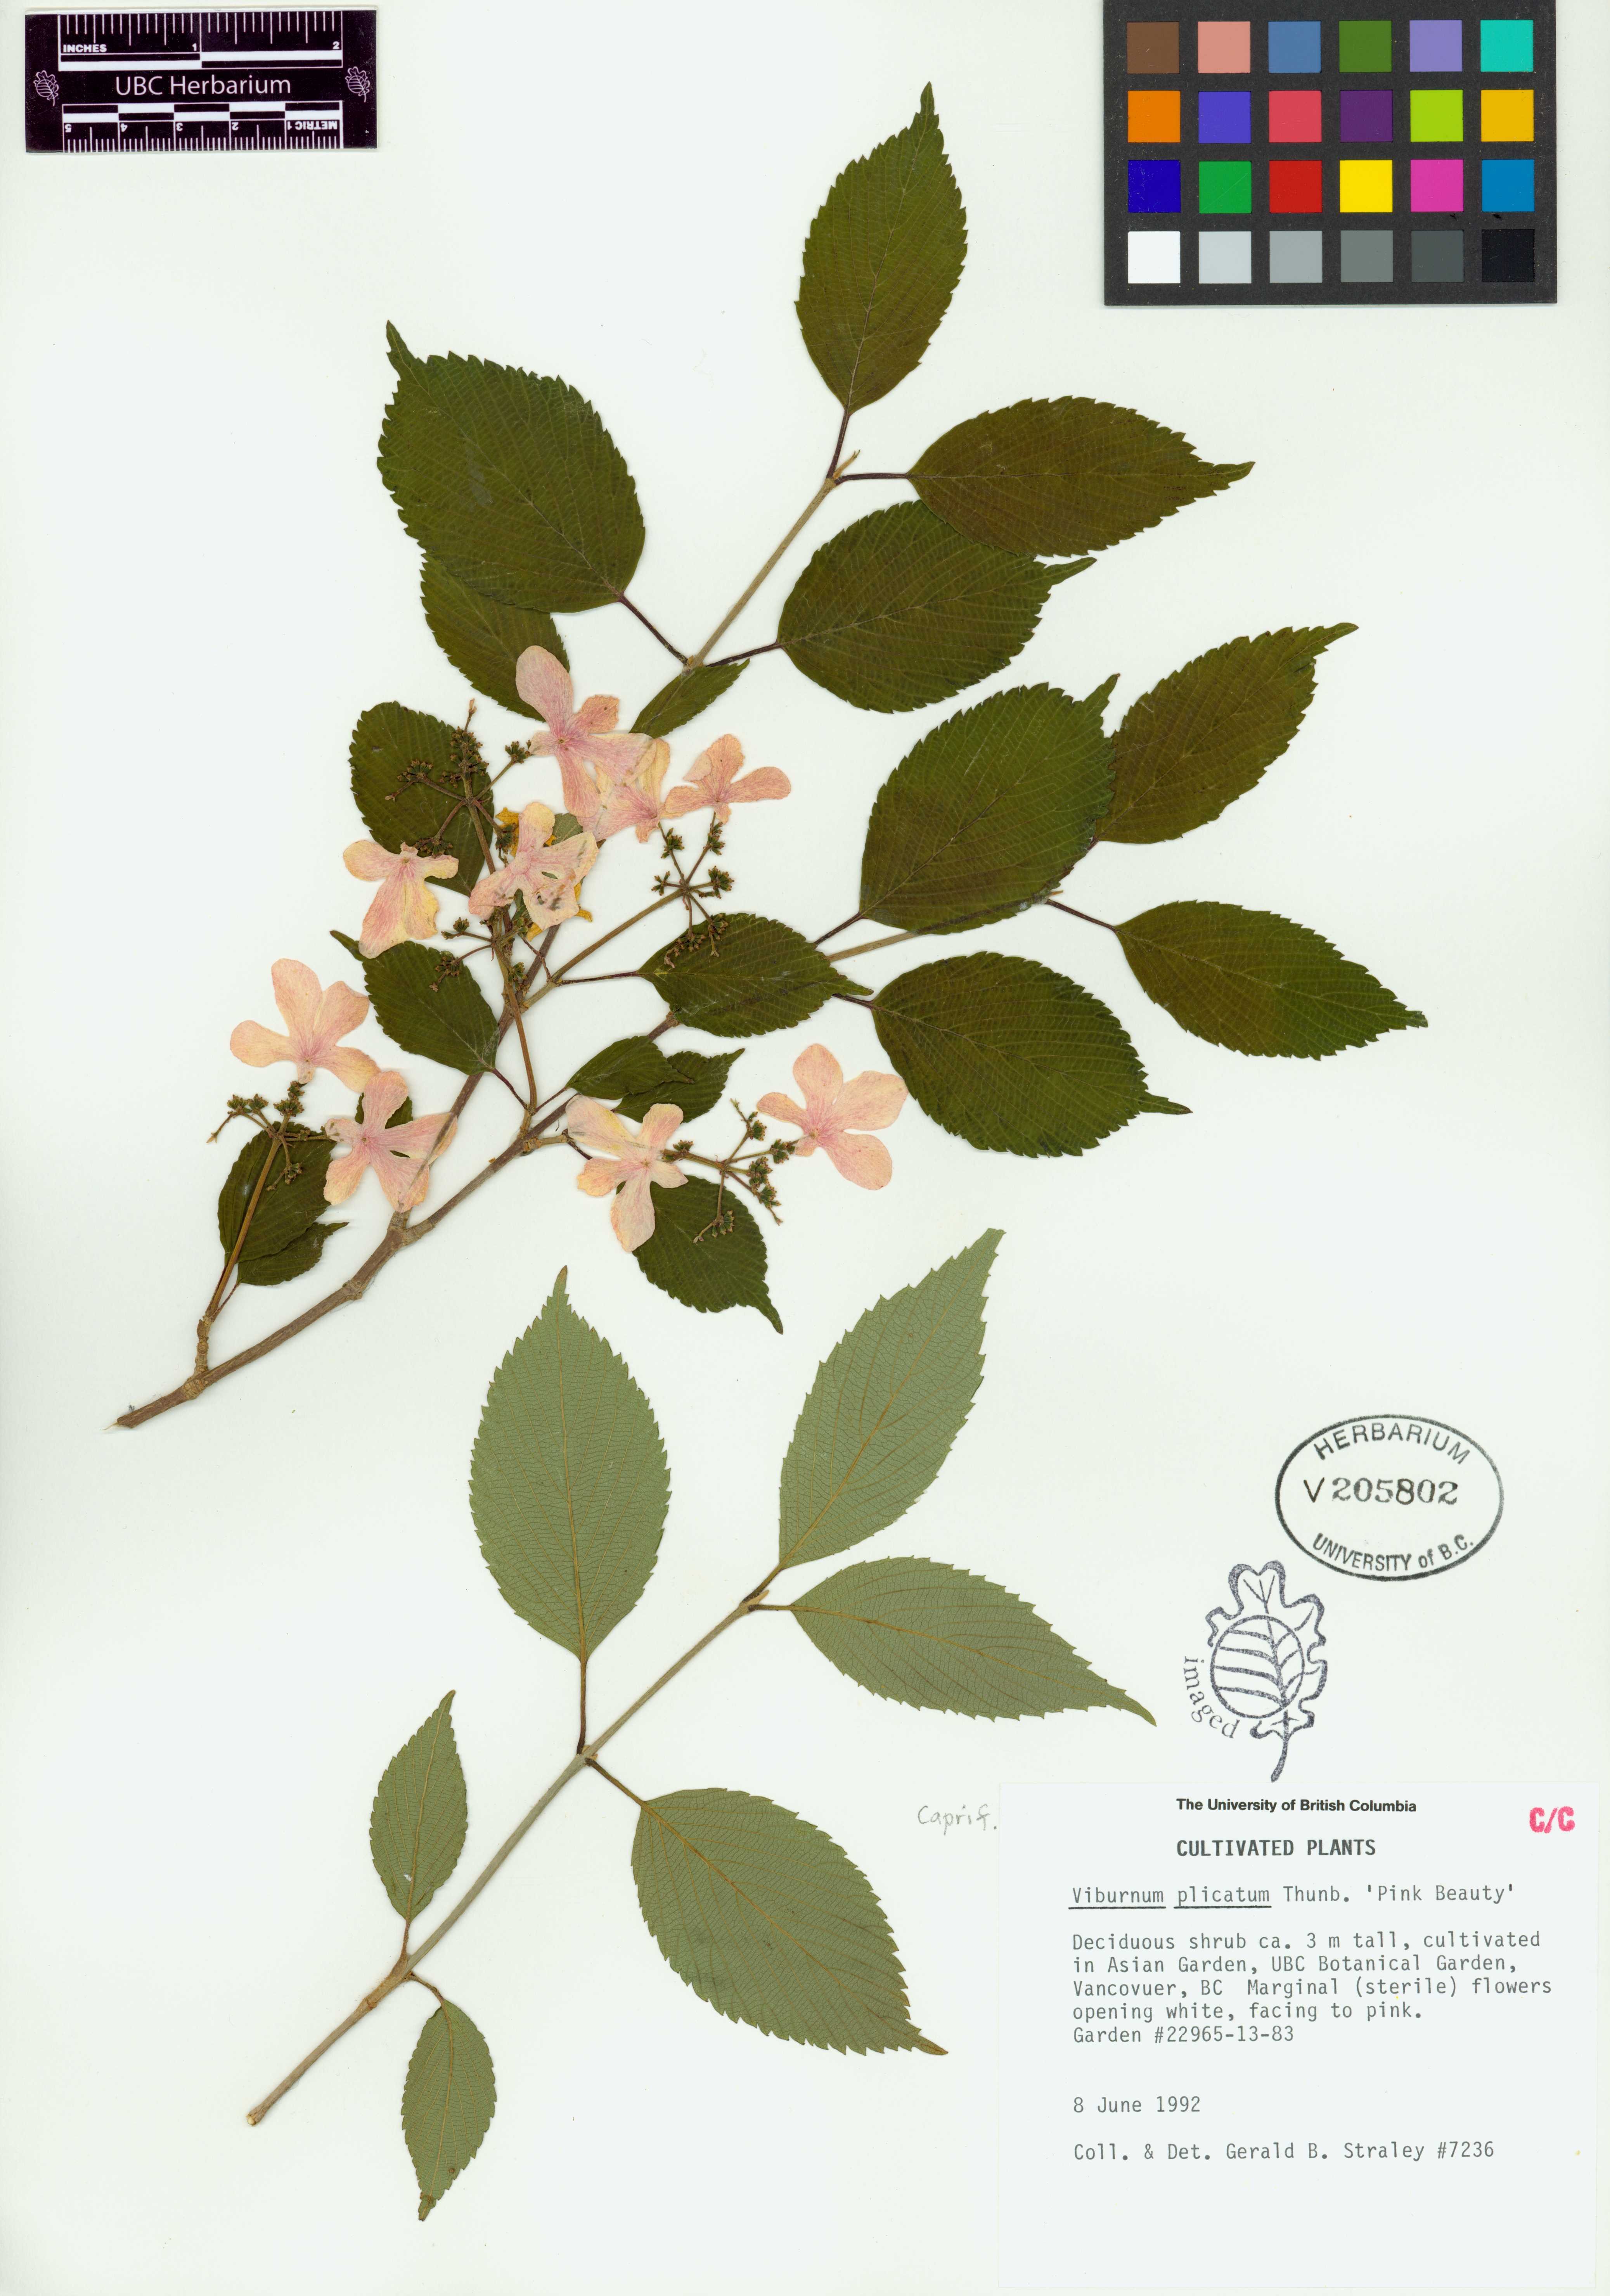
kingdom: Plantae
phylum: Tracheophyta
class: Magnoliopsida
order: Dipsacales
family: Viburnaceae
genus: Viburnum
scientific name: Viburnum plicatum
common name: Japanese snowball
